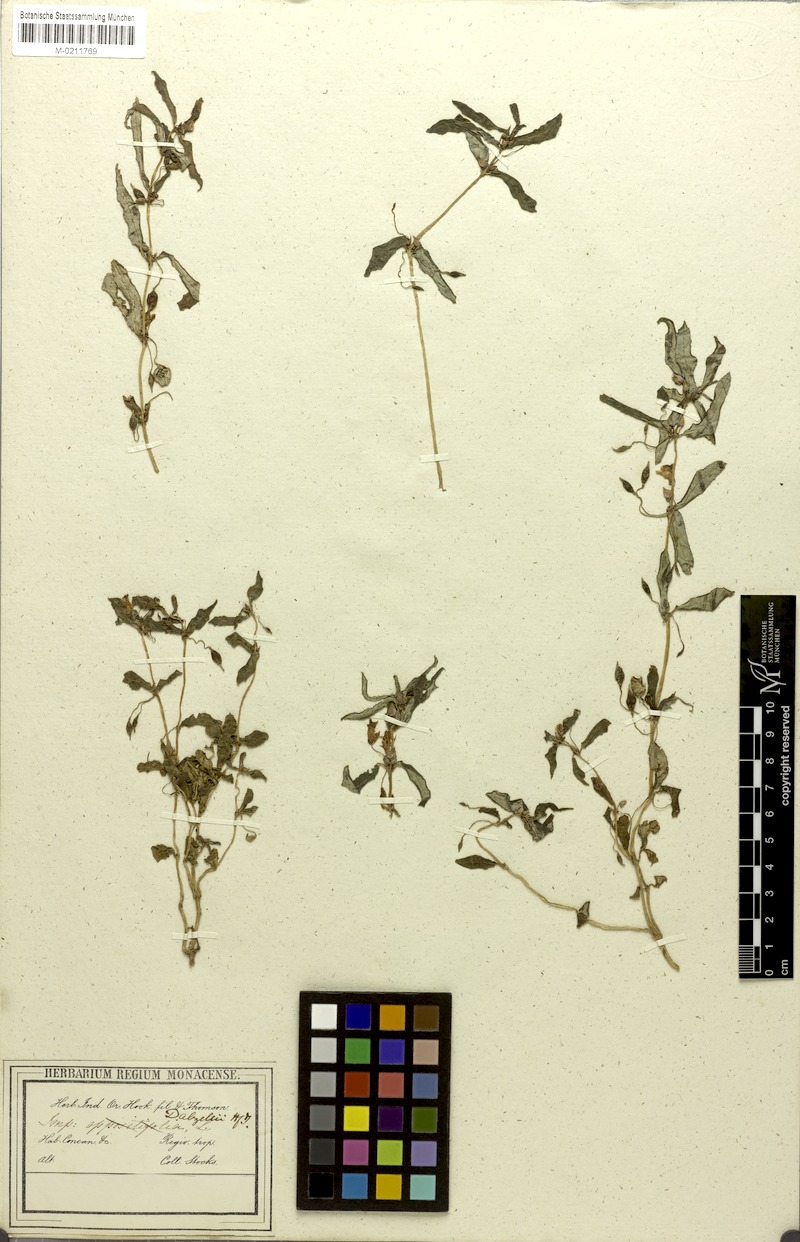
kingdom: Plantae
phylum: Tracheophyta
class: Magnoliopsida
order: Ericales
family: Balsaminaceae
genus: Impatiens
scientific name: Impatiens dalzellii
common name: Dalzell's yellow balsam
